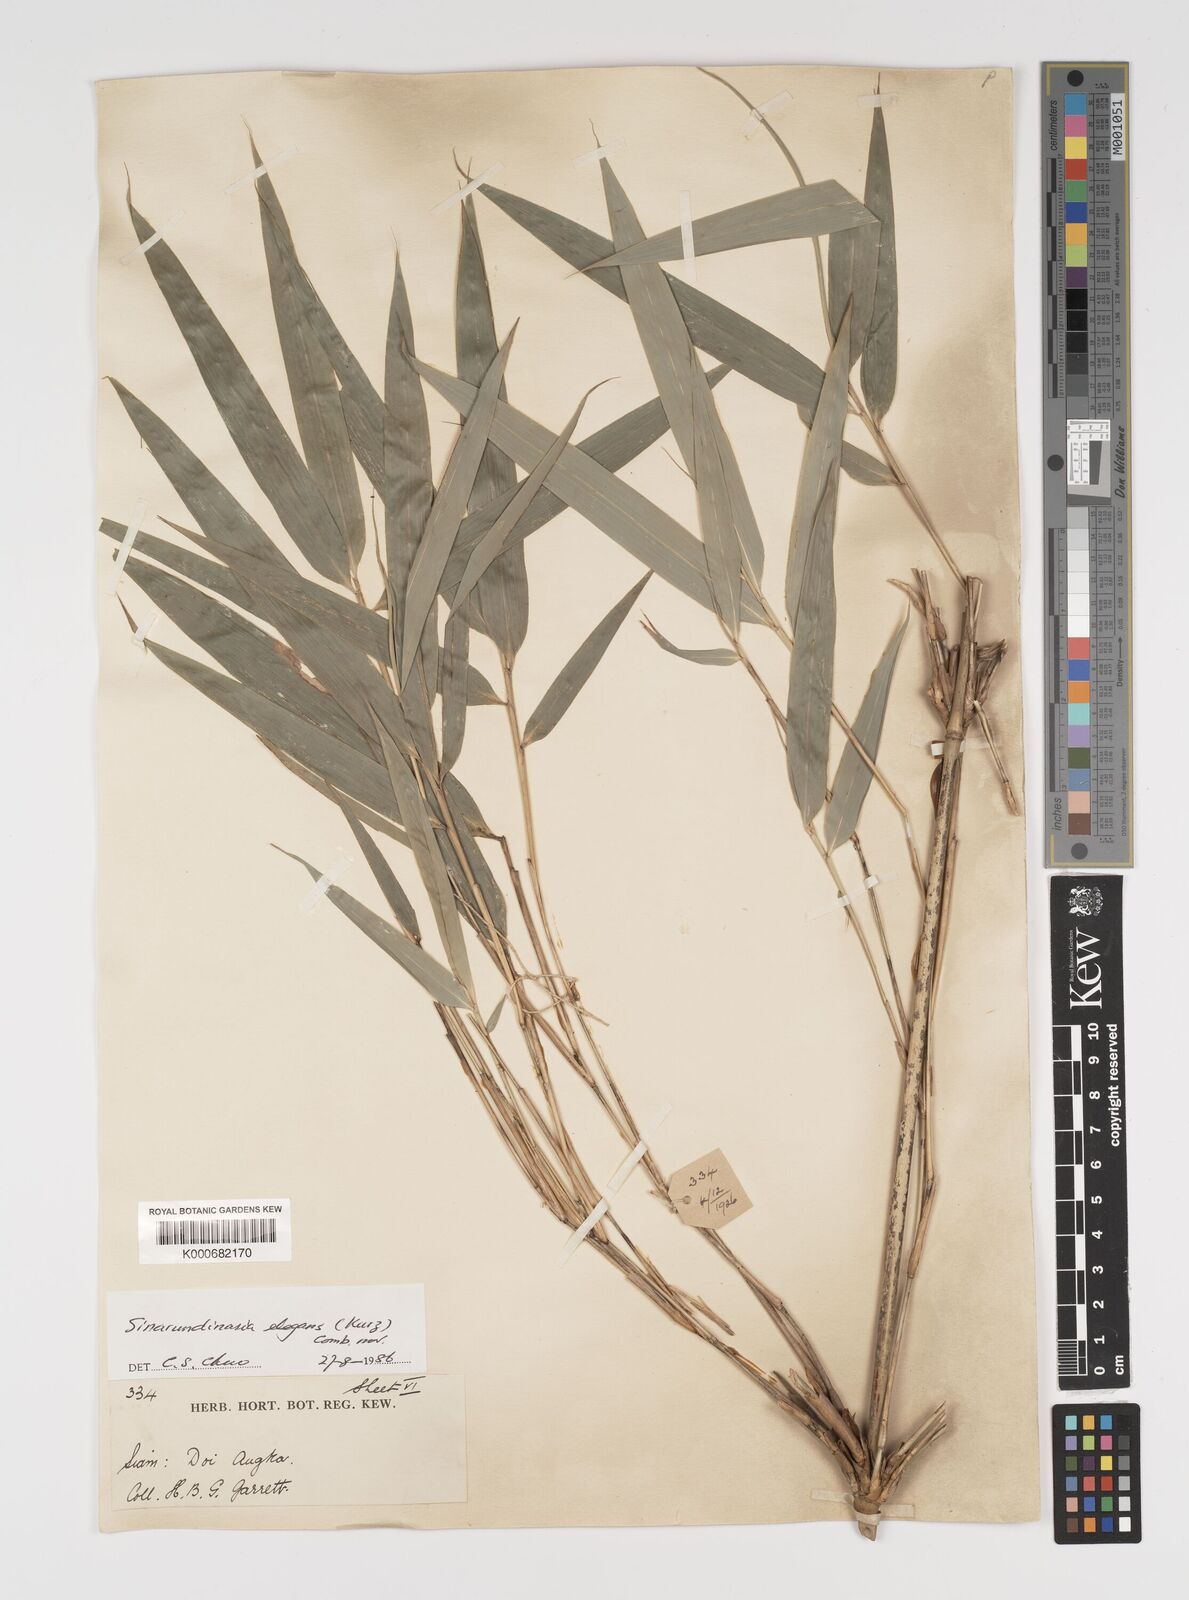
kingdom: Plantae
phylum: Tracheophyta
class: Liliopsida
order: Poales
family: Poaceae
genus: Yushania
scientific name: Yushania schmidiana
